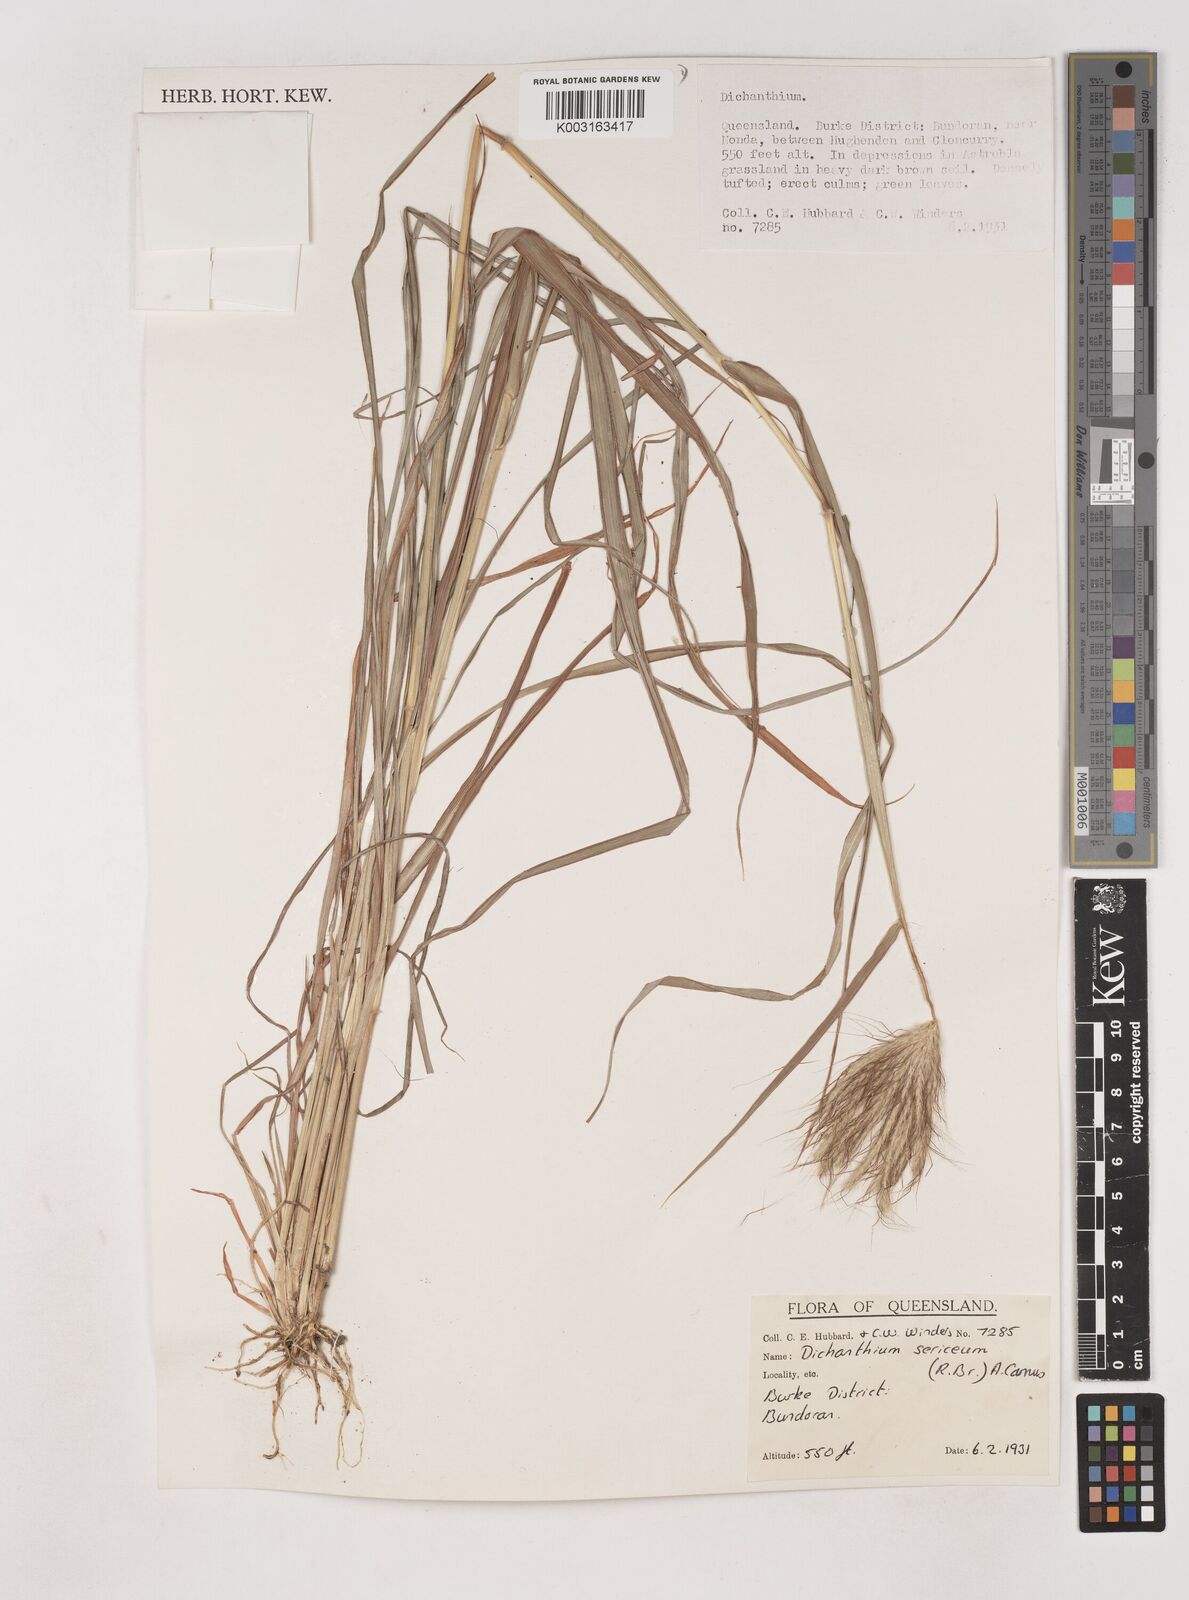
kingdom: Plantae
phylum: Tracheophyta
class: Liliopsida
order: Poales
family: Poaceae
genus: Dichanthium
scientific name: Dichanthium sericeum
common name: Silky bluestem
